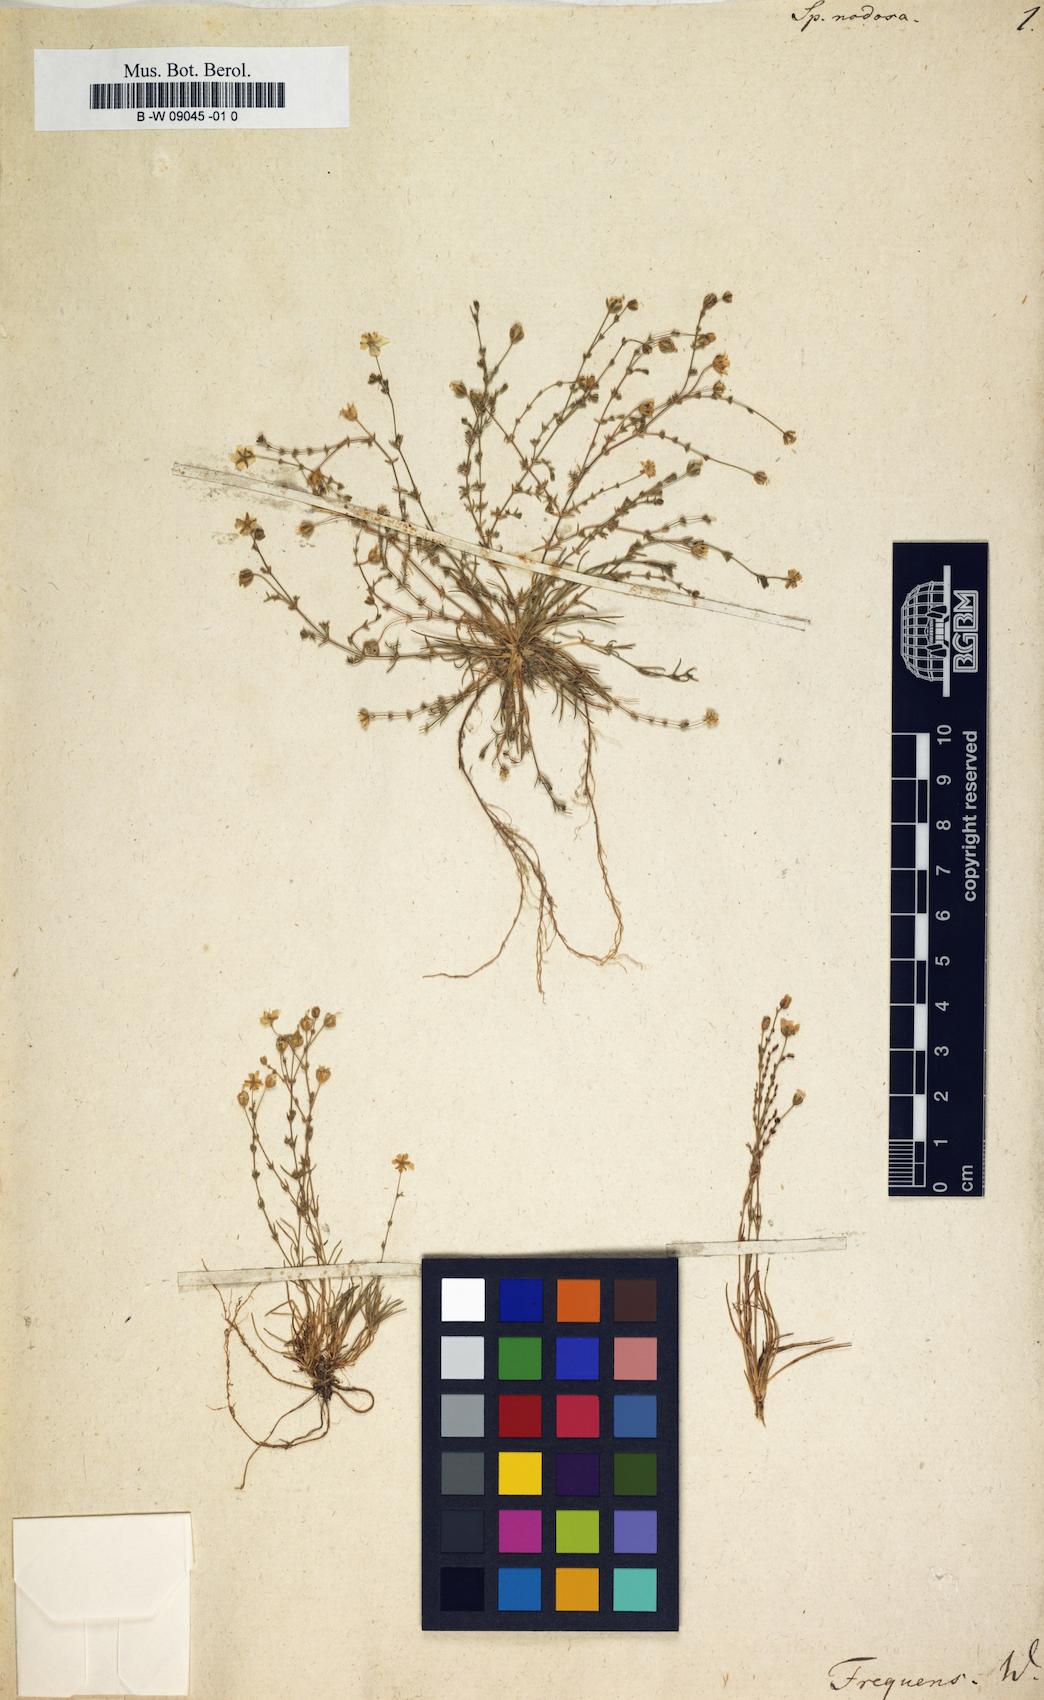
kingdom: Plantae
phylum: Tracheophyta
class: Magnoliopsida
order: Caryophyllales
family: Caryophyllaceae
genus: Sagina
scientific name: Sagina
